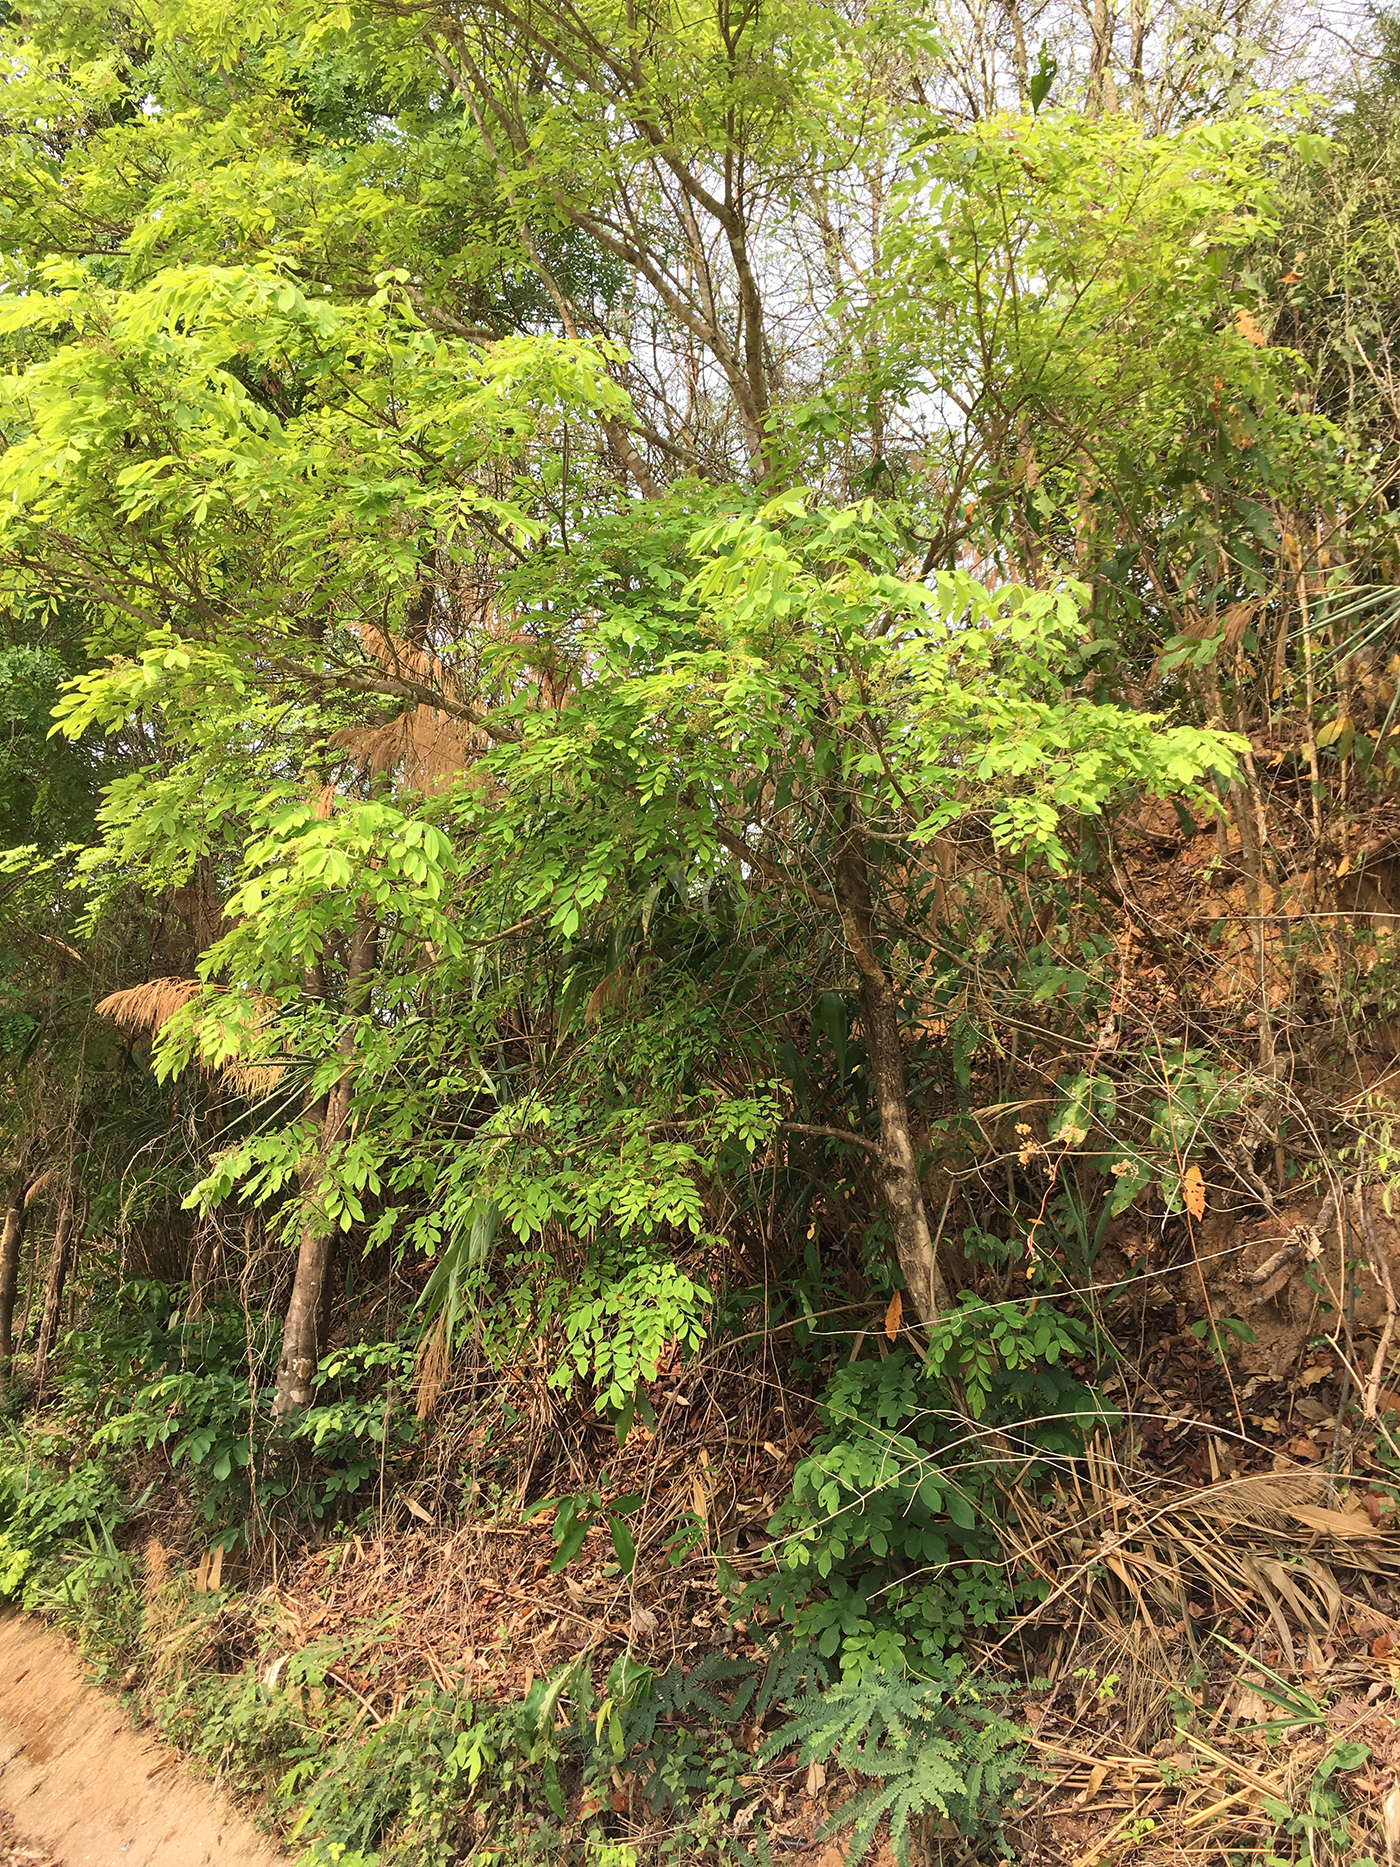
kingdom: Plantae
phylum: Tracheophyta
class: Magnoliopsida
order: Fabales
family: Fabaceae
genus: Dalbergia
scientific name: Dalbergia
